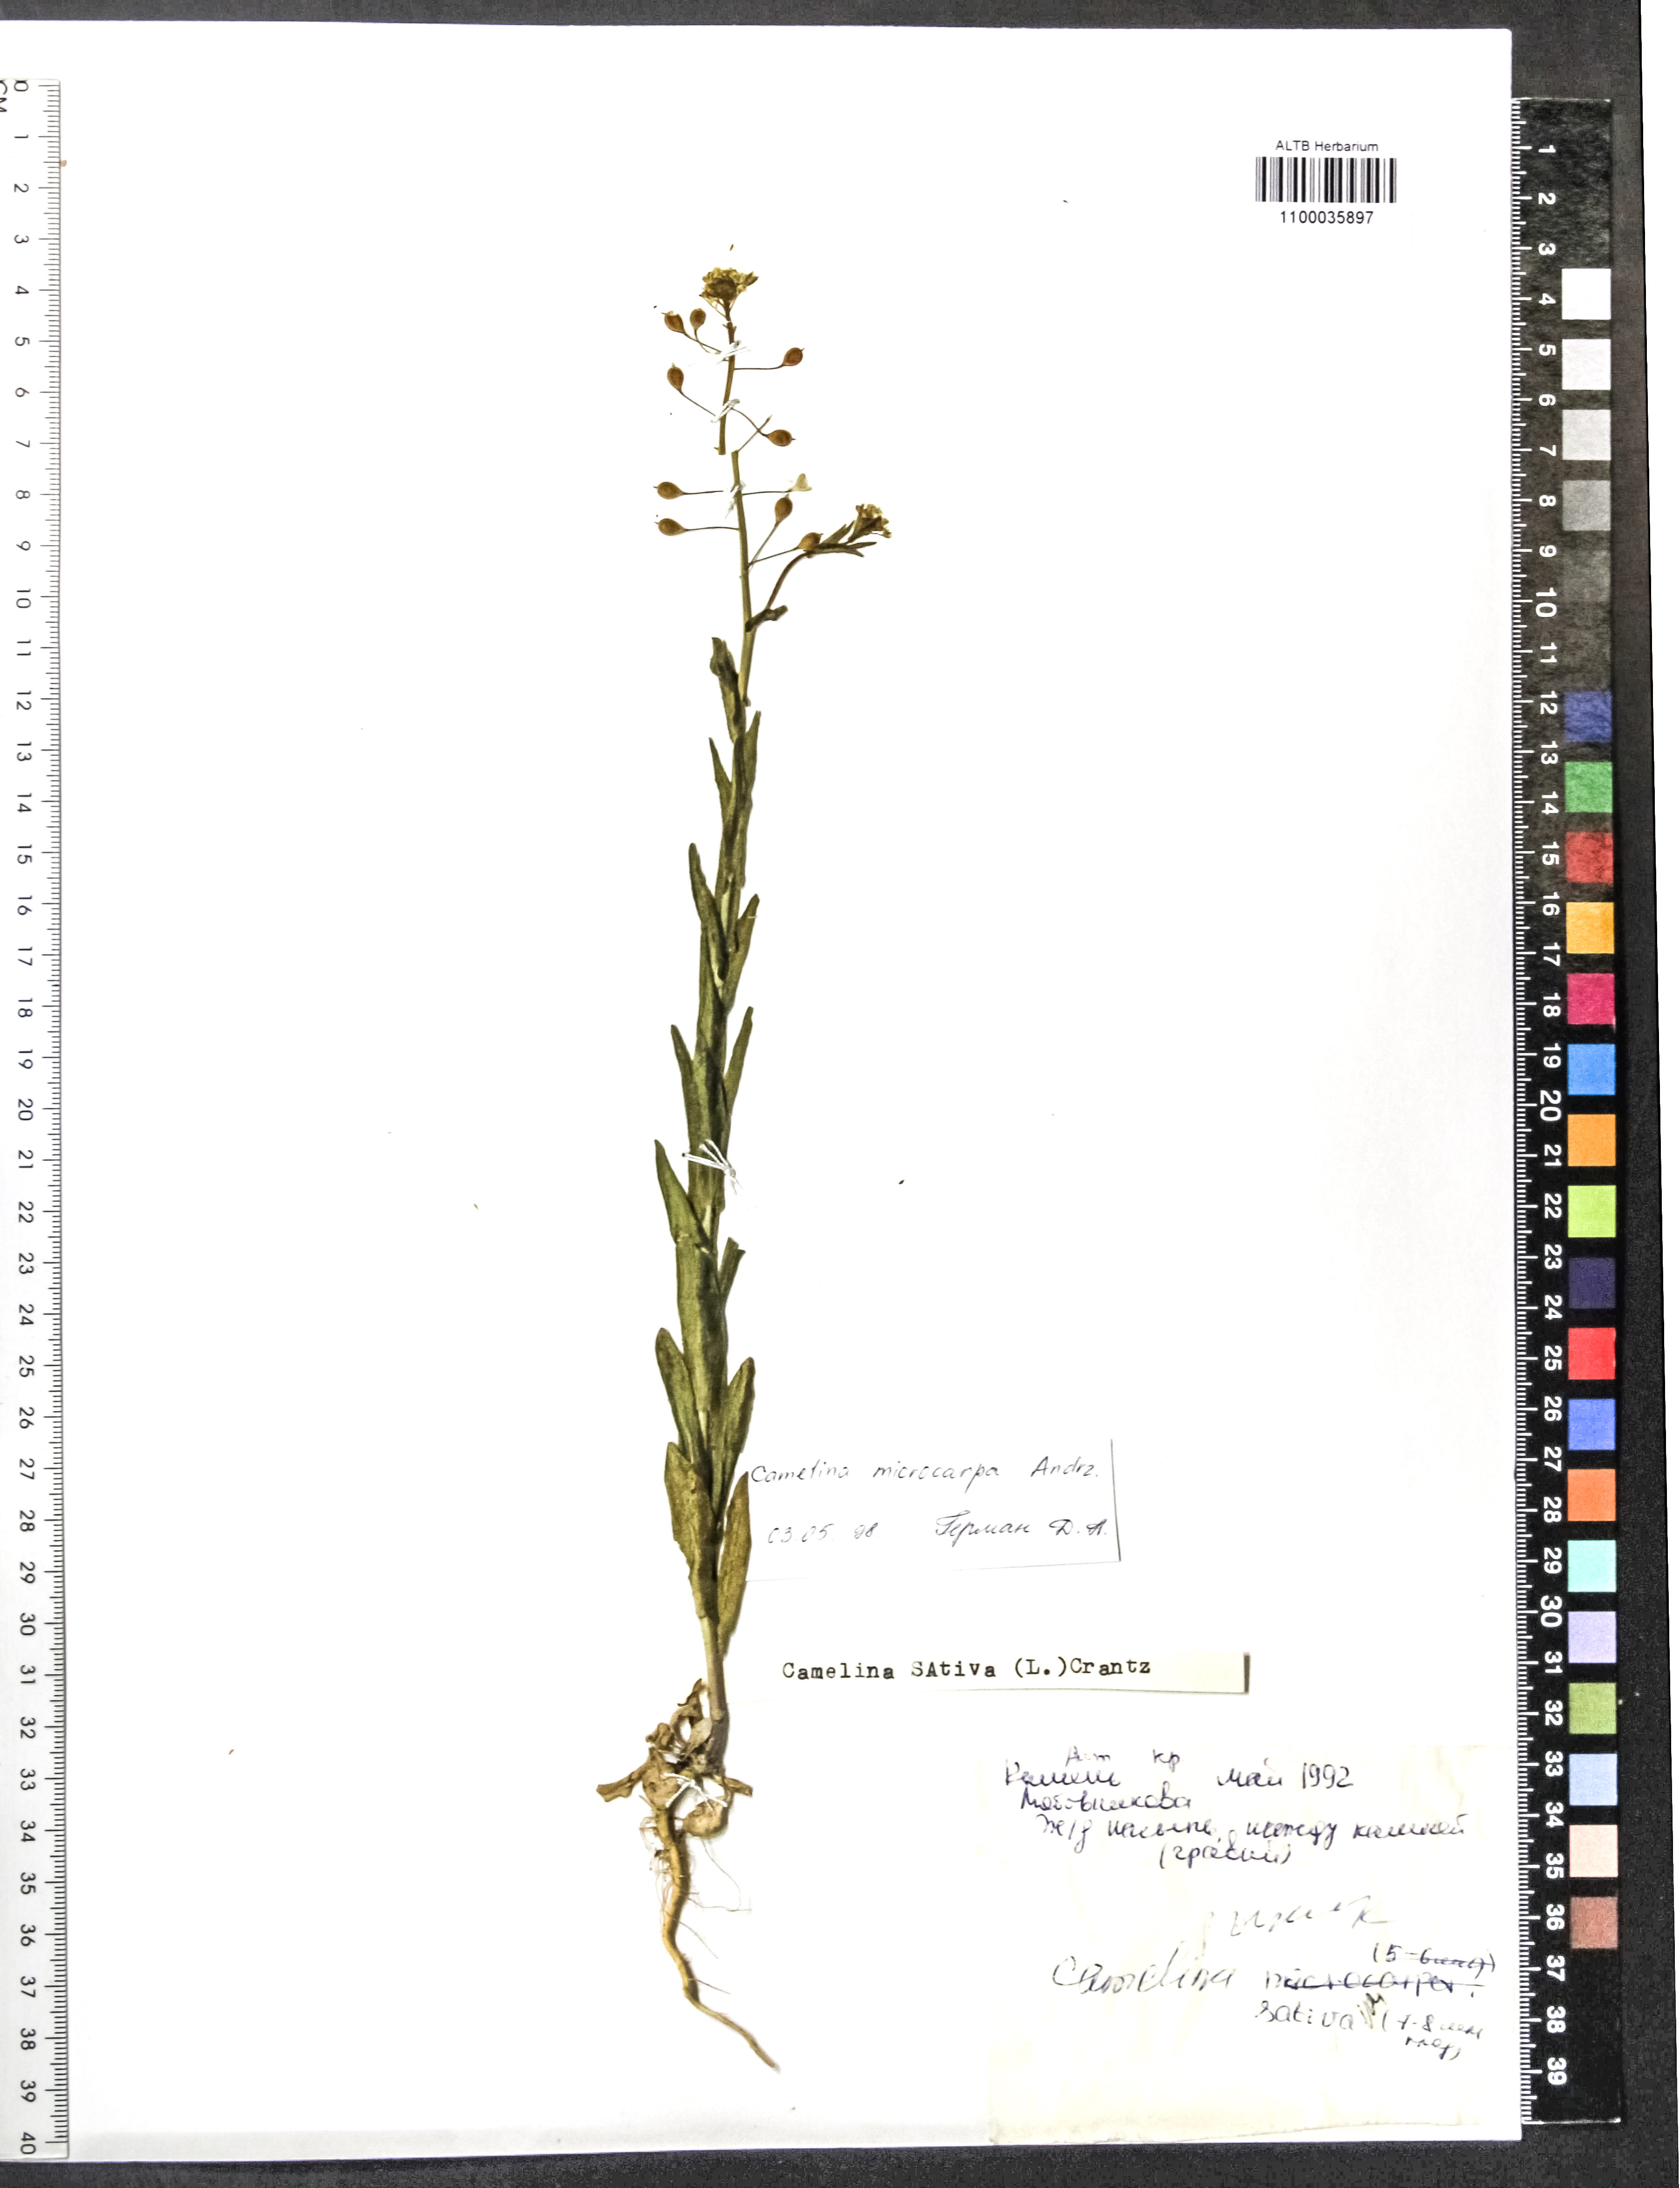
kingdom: Plantae
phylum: Tracheophyta
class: Magnoliopsida
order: Brassicales
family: Brassicaceae
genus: Camelina
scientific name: Camelina microcarpa
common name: Lesser gold-of-pleasure
